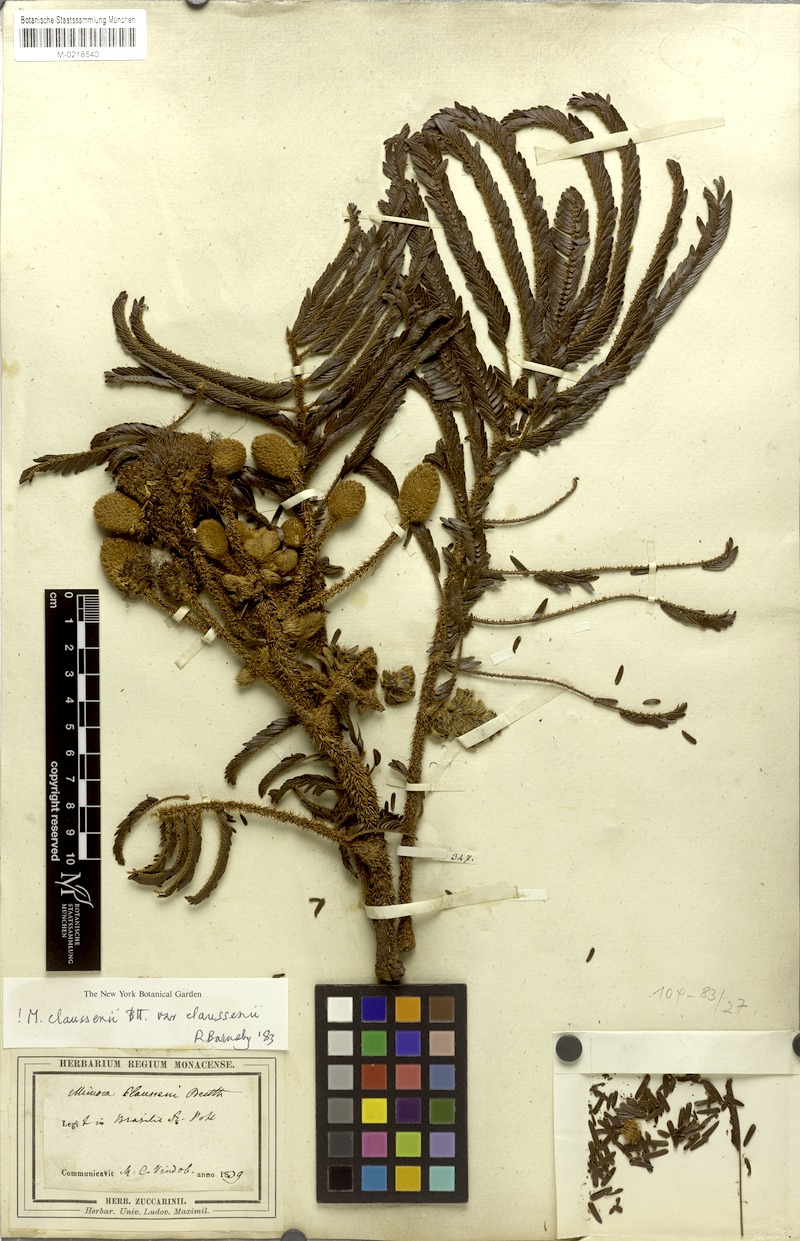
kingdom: Plantae
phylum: Tracheophyta
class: Magnoliopsida
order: Fabales
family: Fabaceae
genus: Mimosa
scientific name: Mimosa claussenii
